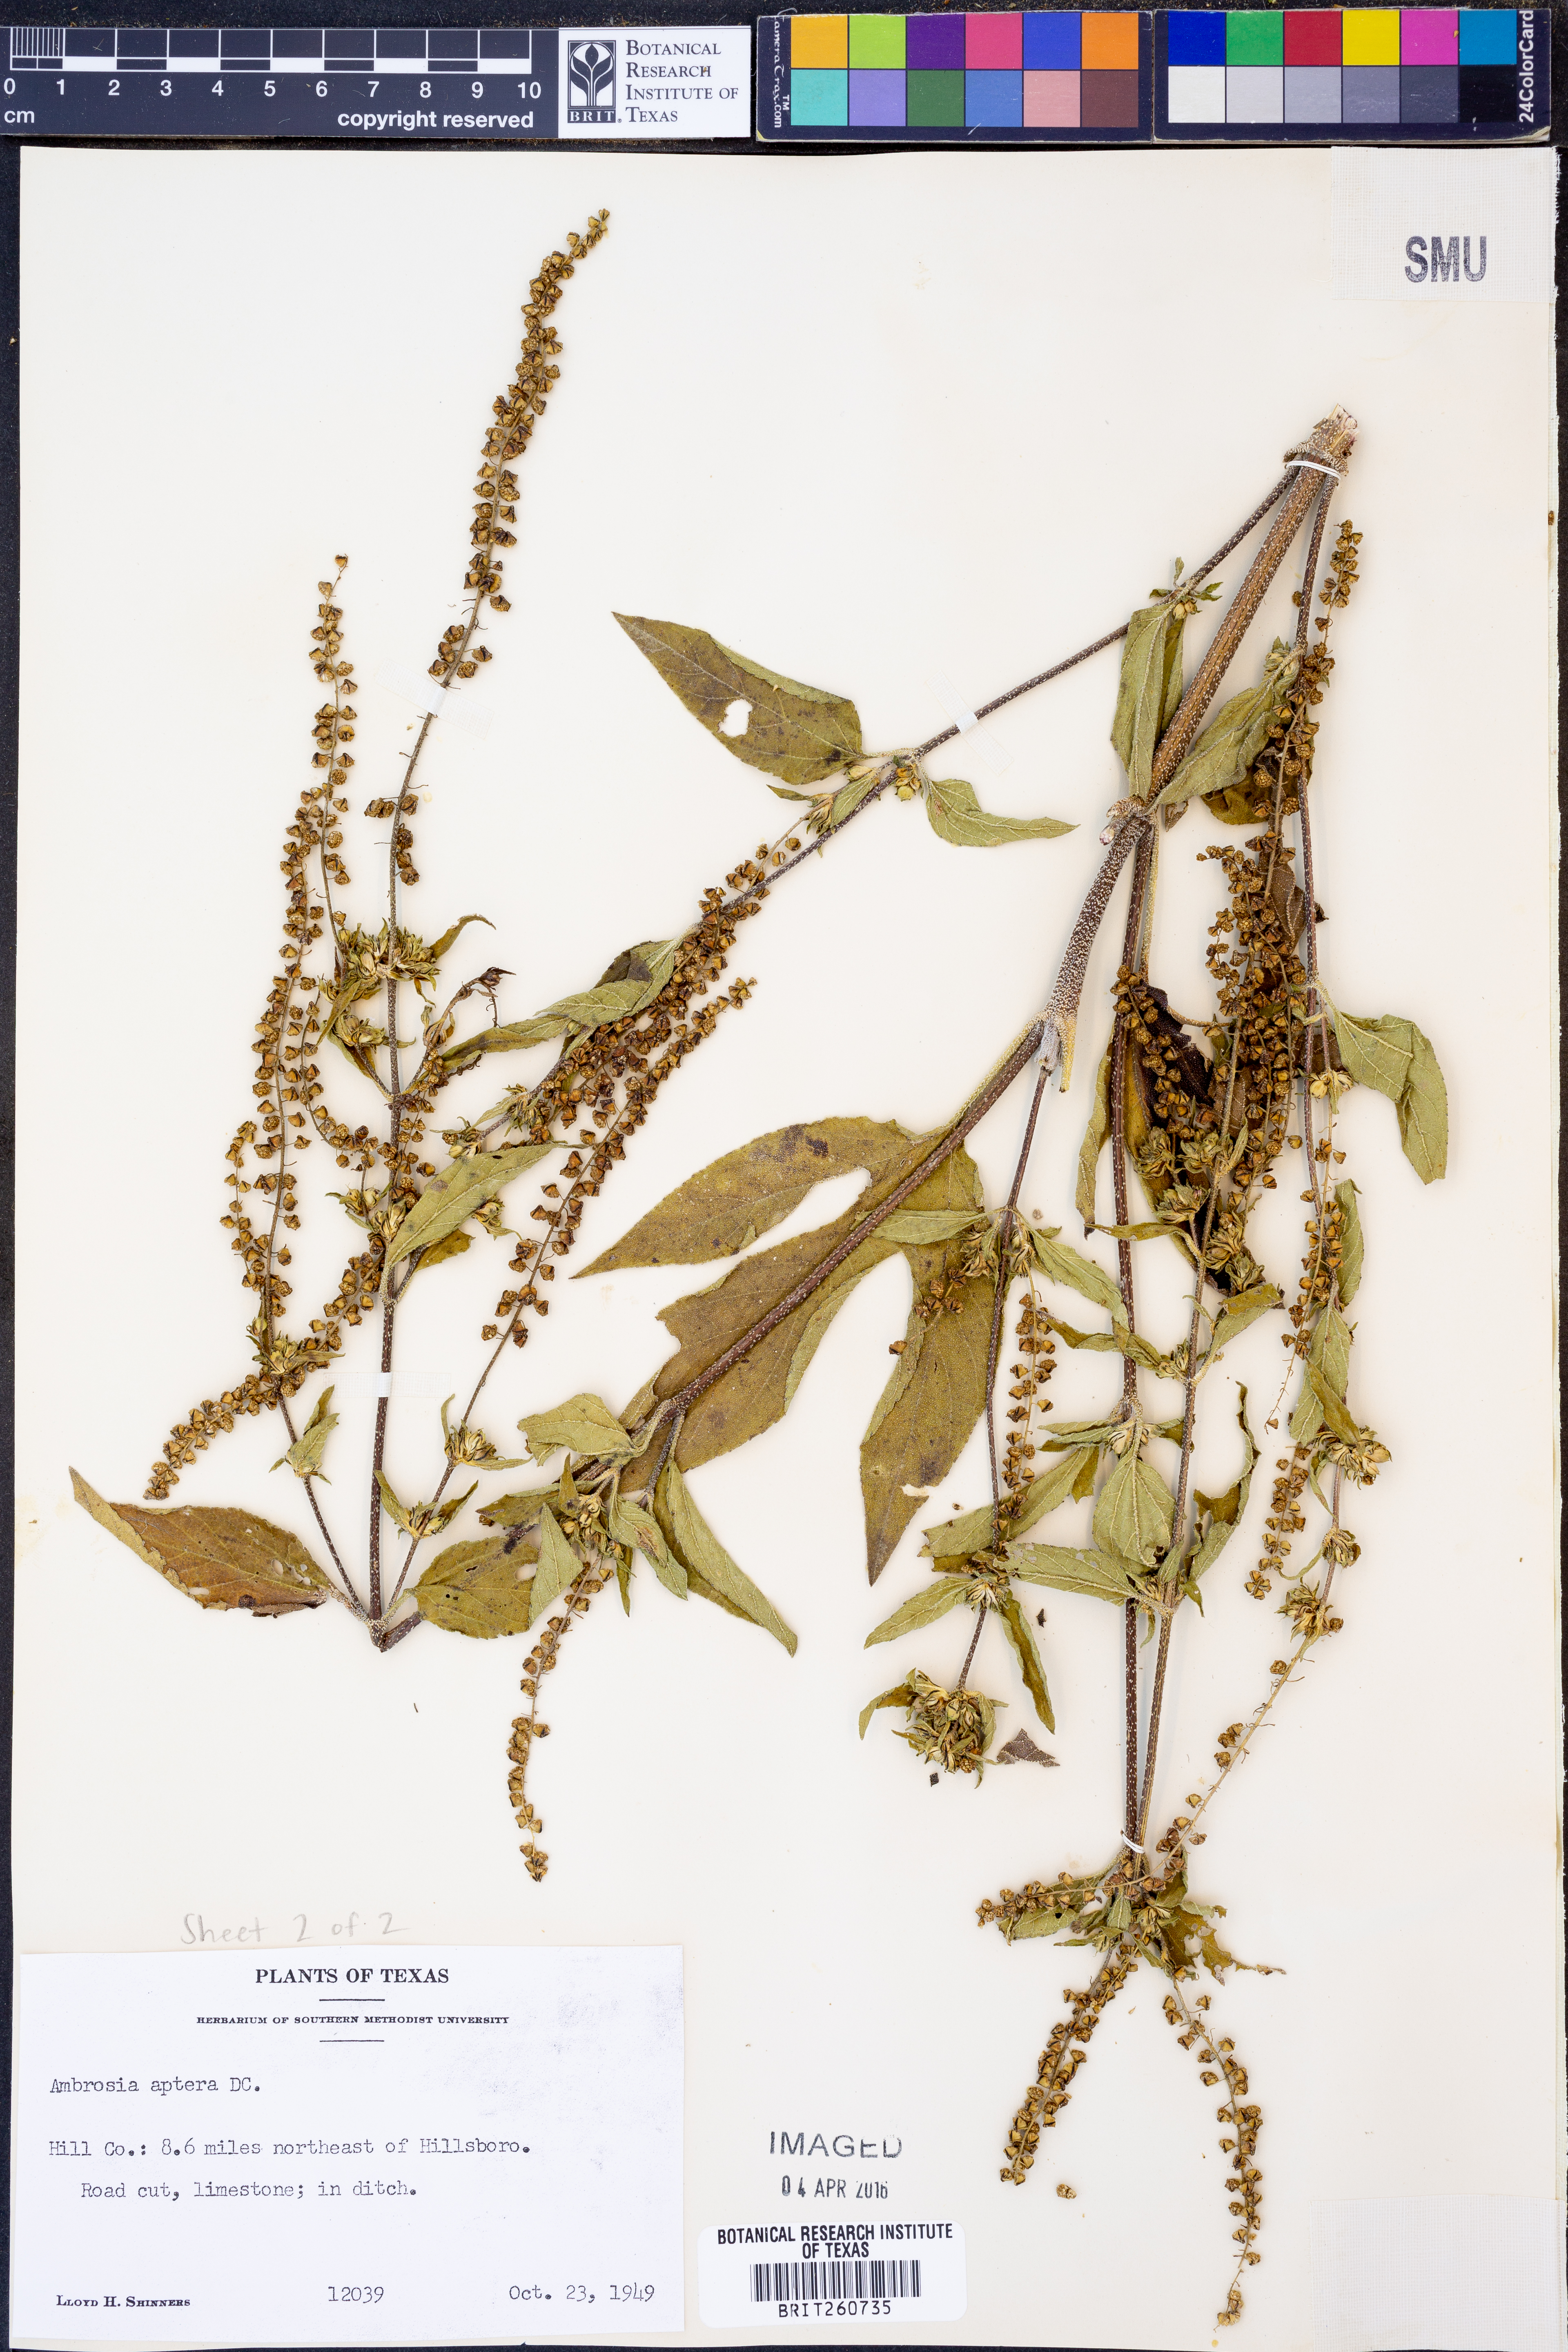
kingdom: Plantae
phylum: Tracheophyta
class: Magnoliopsida
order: Asterales
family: Asteraceae
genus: Ambrosia
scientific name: Ambrosia trifida
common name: Giant ragweed
